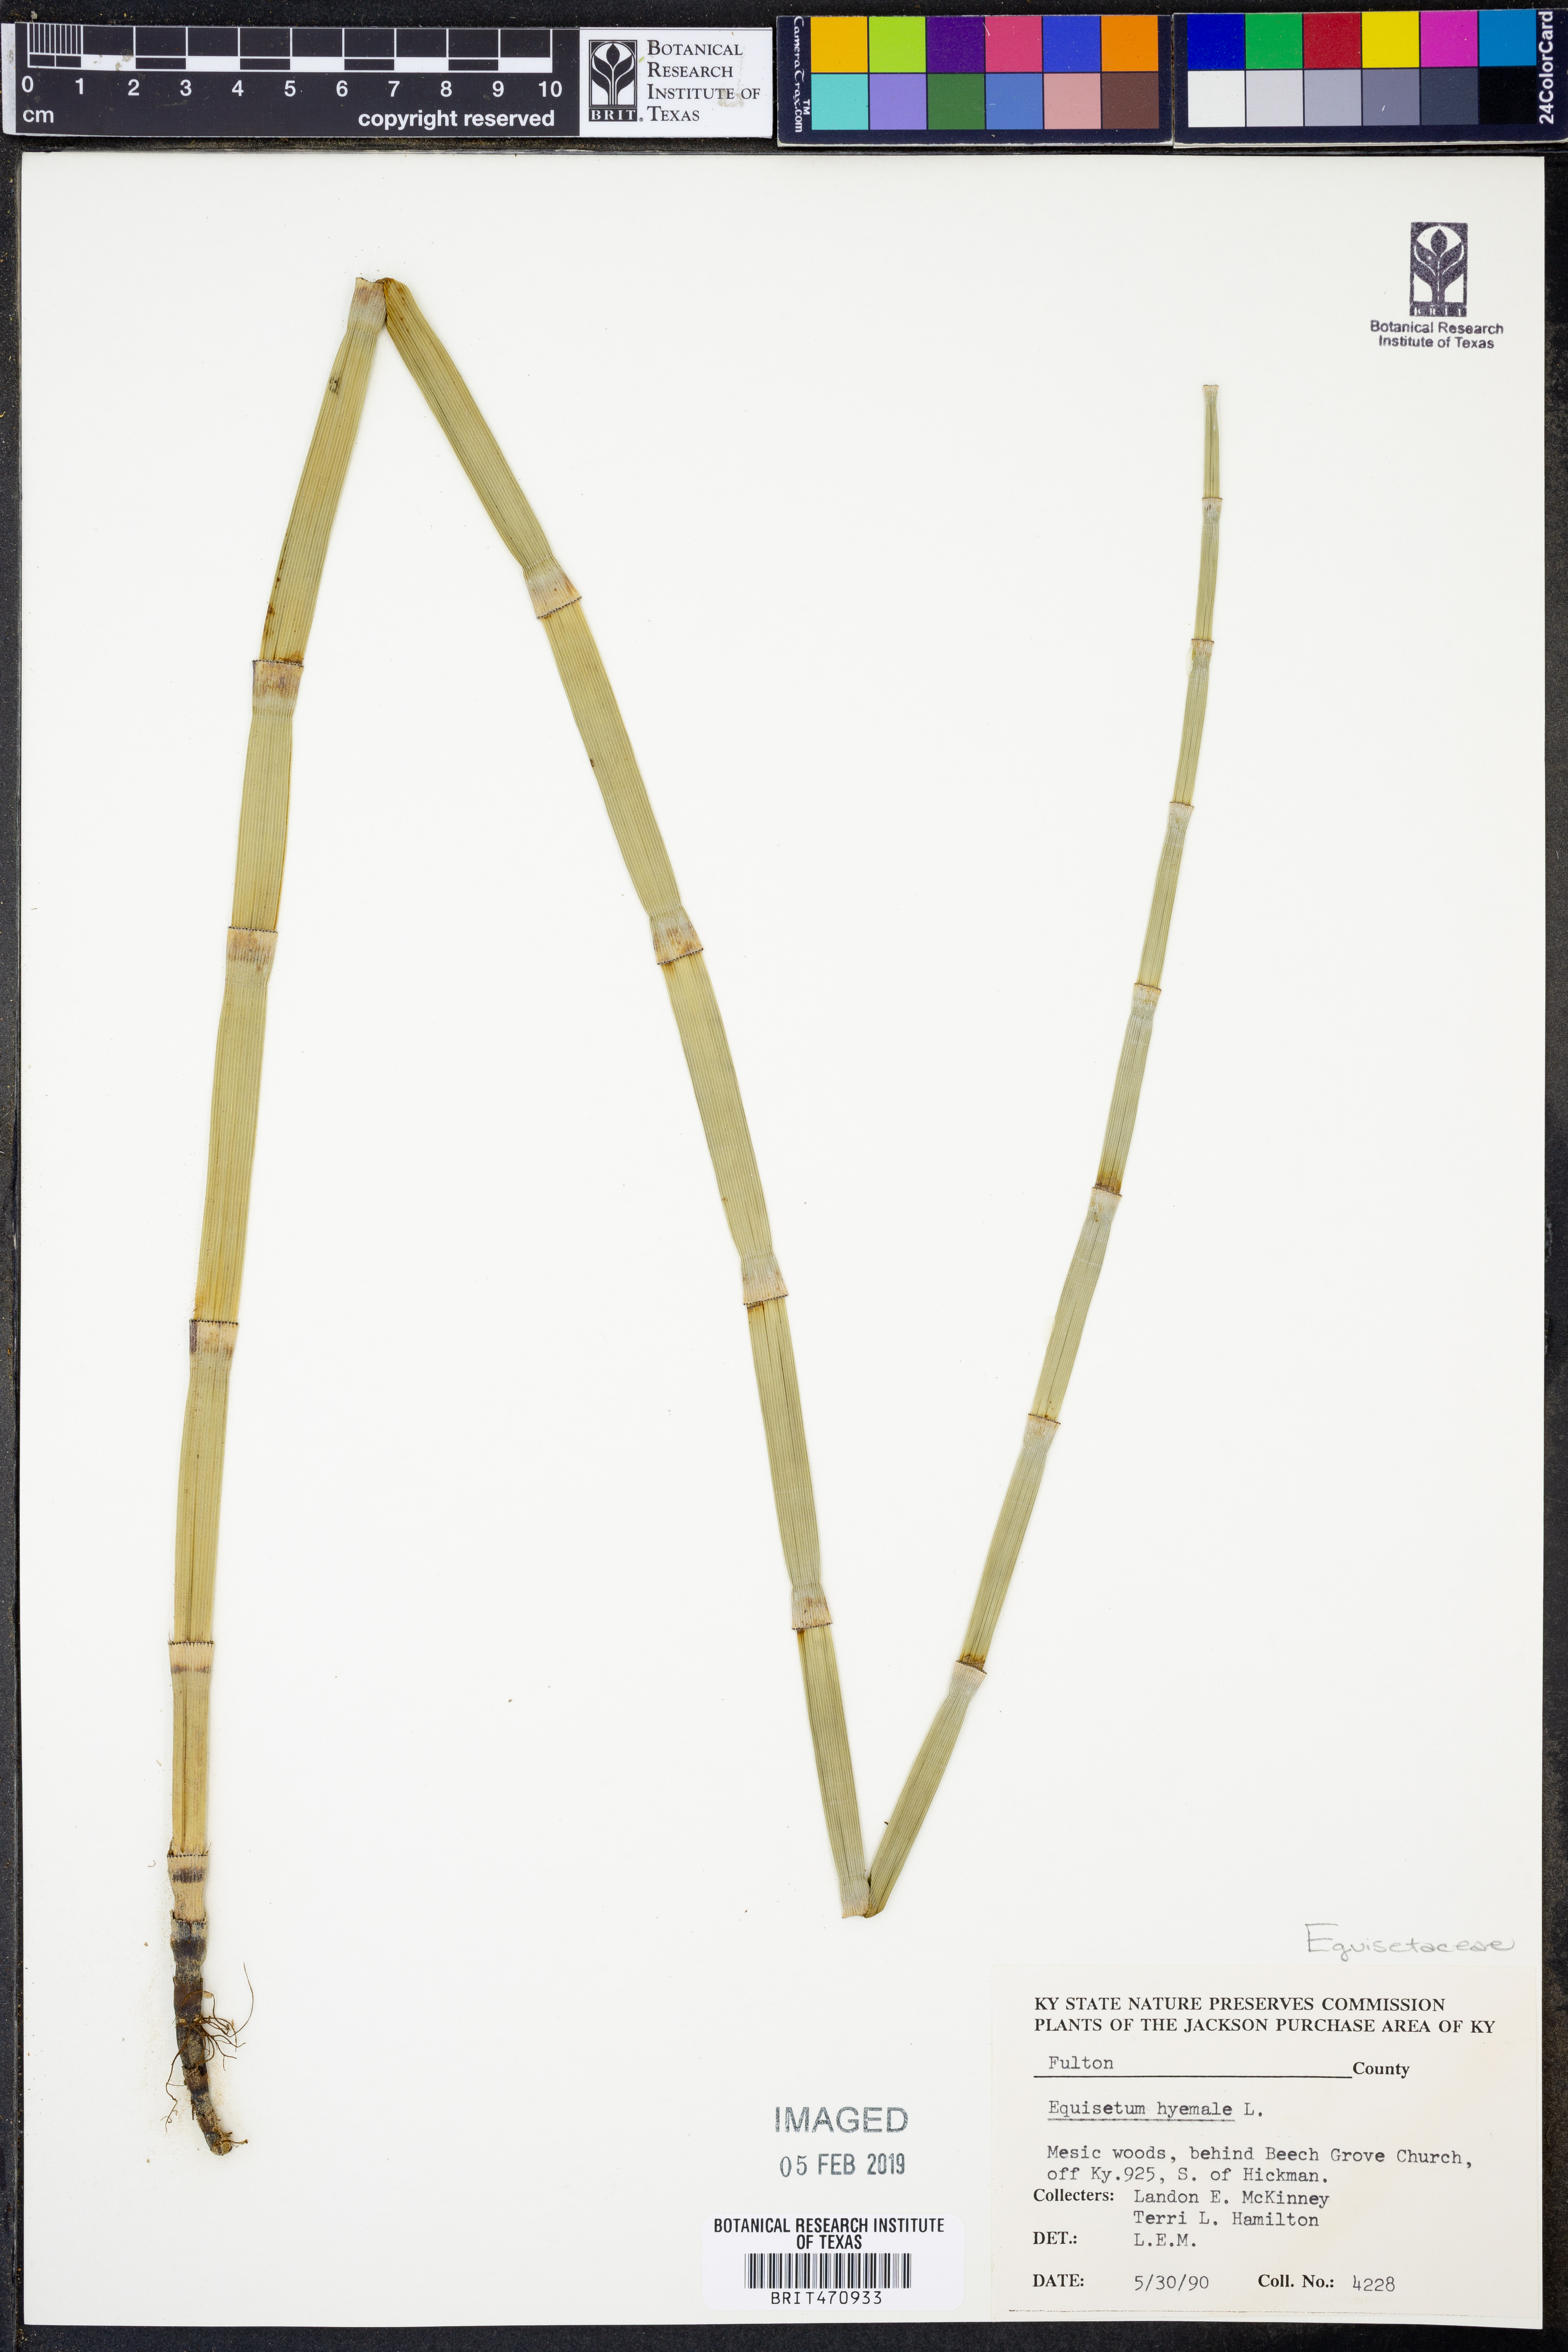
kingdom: Plantae
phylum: Tracheophyta
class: Polypodiopsida
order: Equisetales
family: Equisetaceae
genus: Equisetum
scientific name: Equisetum hyemale
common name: Rough horsetail
